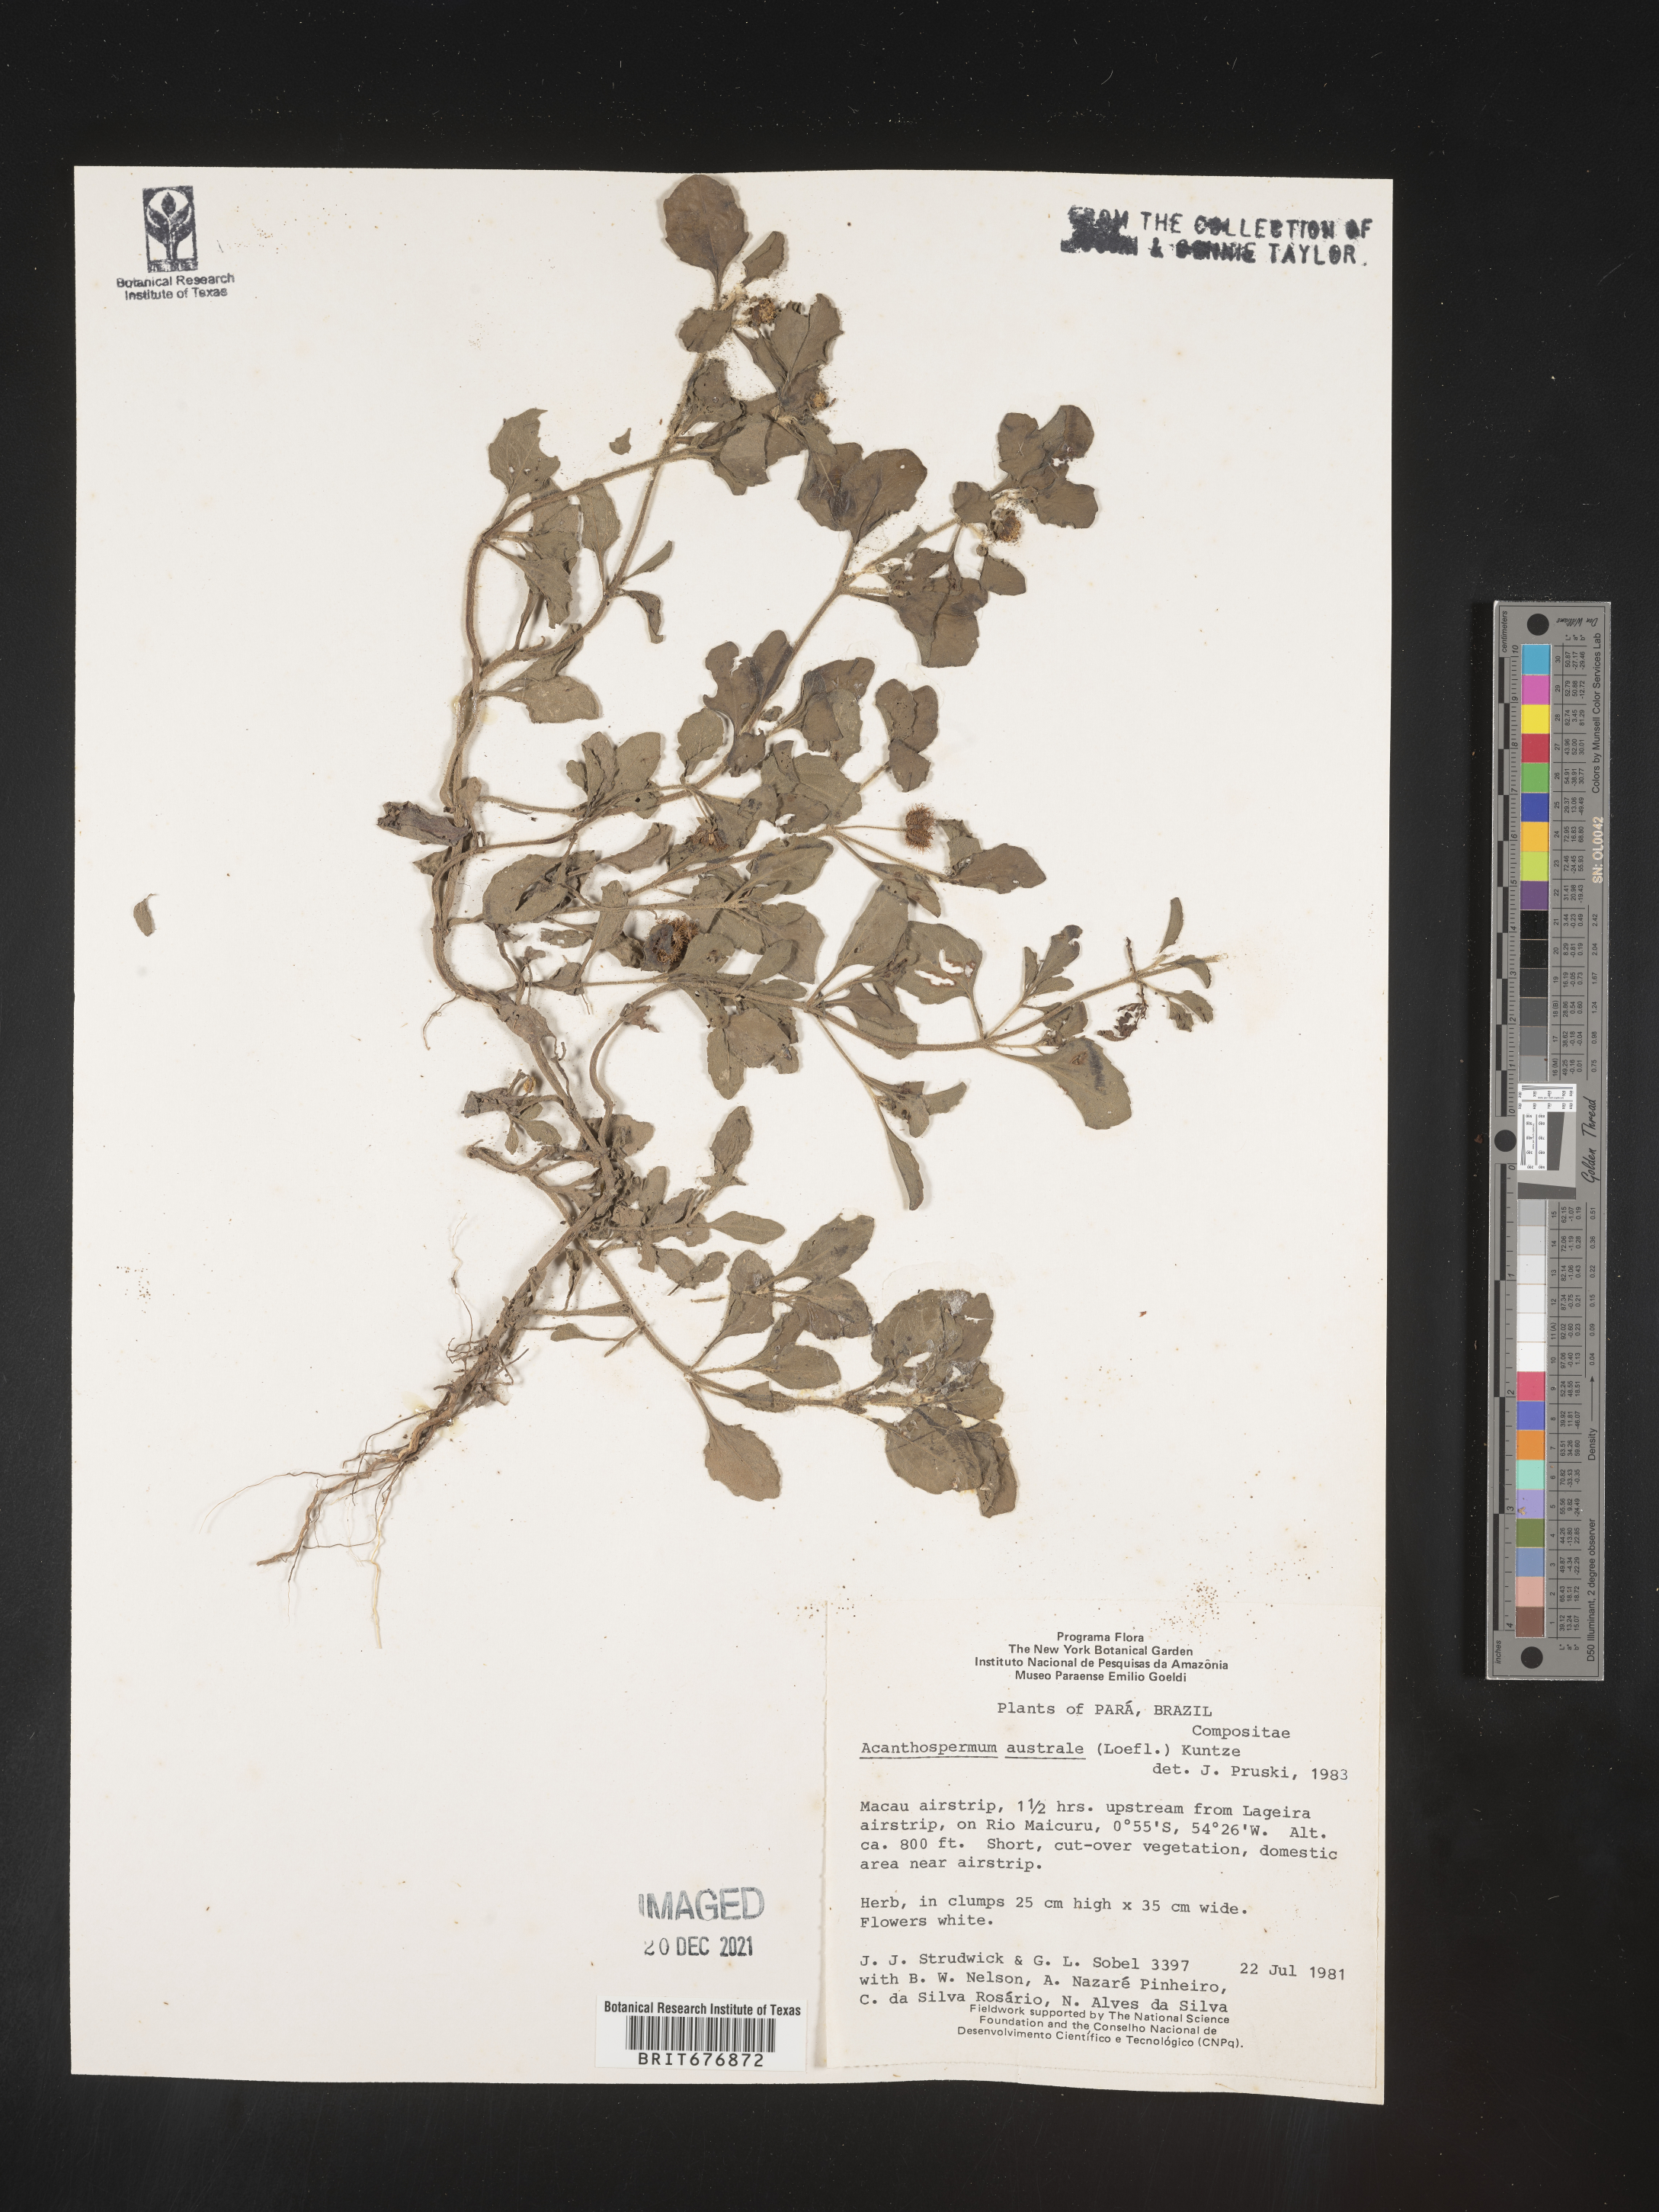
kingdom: Plantae
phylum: Tracheophyta
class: Magnoliopsida
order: Asterales
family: Asteraceae
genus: Acanthospermum
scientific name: Acanthospermum
